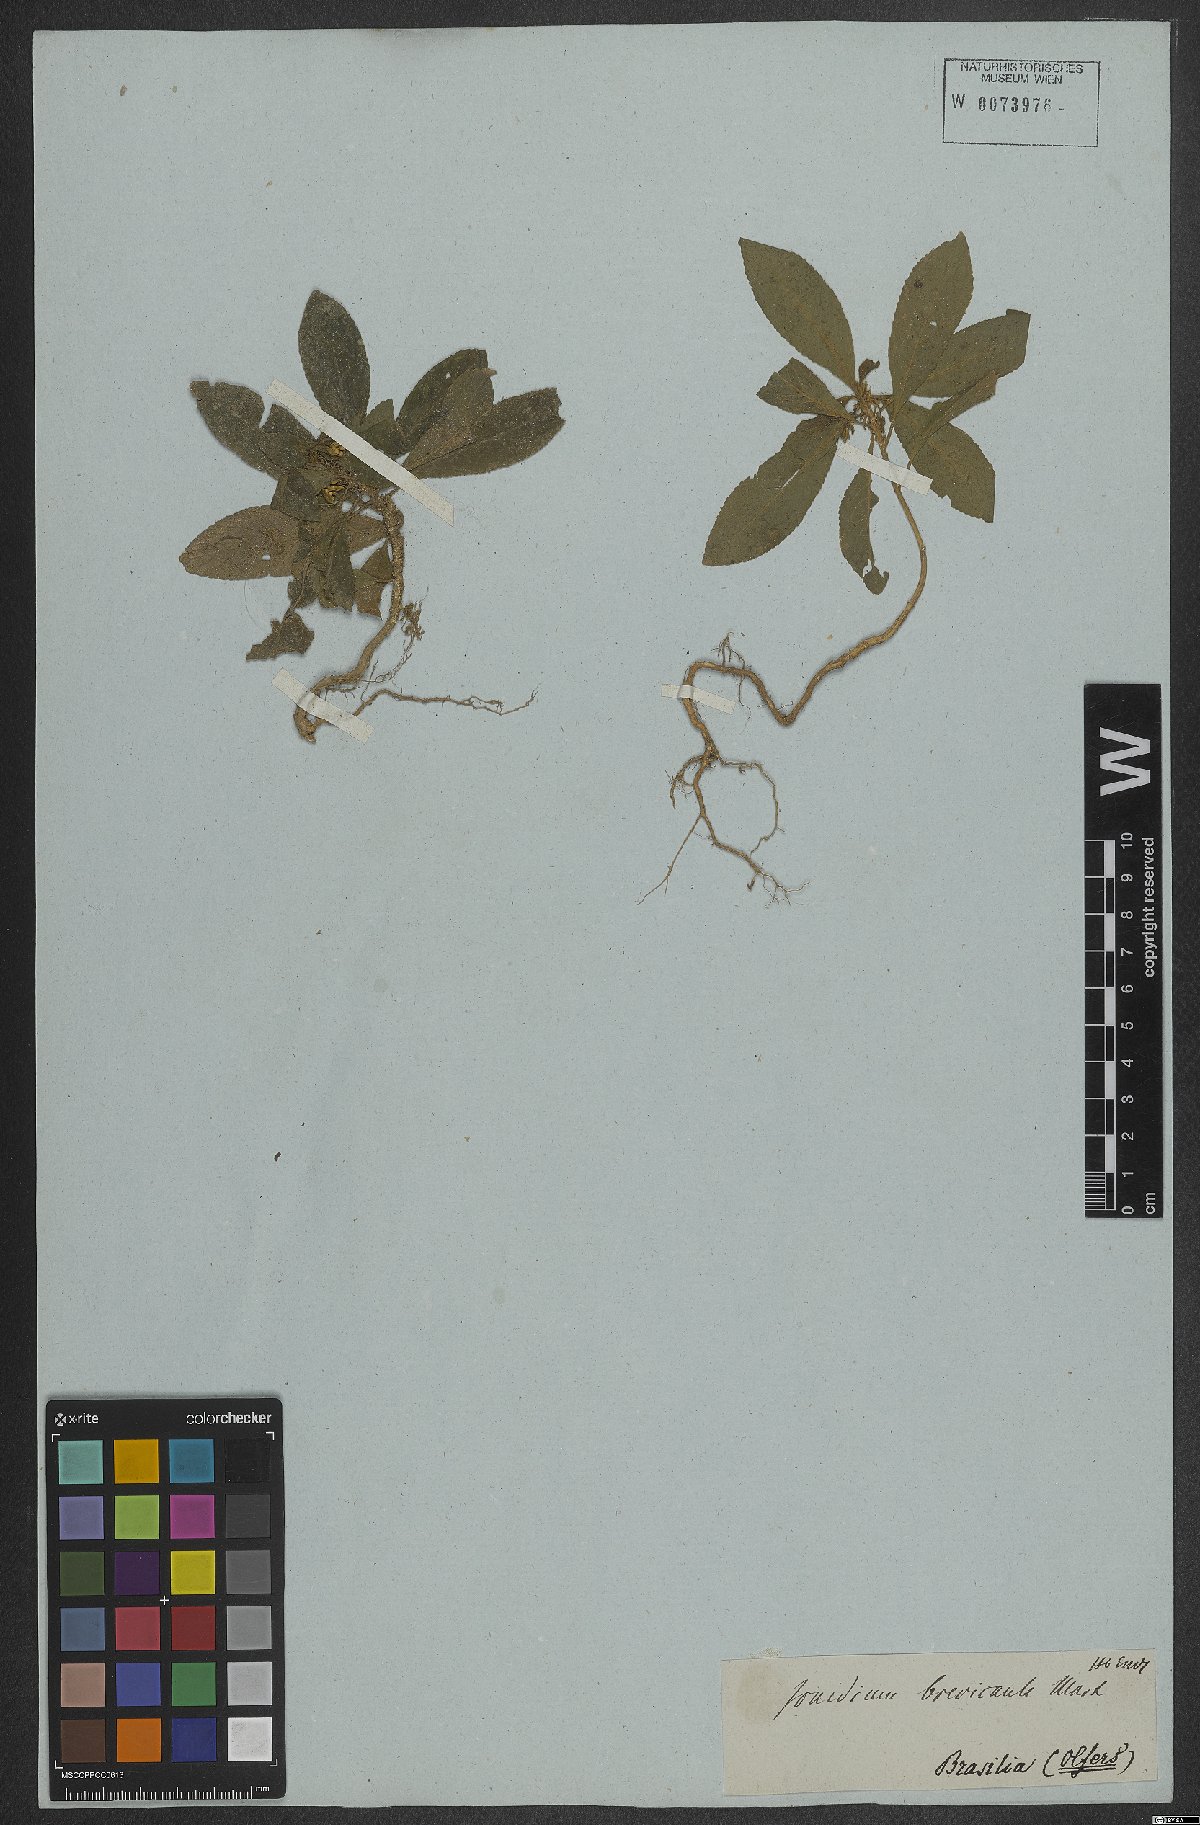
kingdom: Plantae
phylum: Tracheophyta
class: Magnoliopsida
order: Malpighiales
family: Violaceae
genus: Pombalia
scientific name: Pombalia brevicaulis
